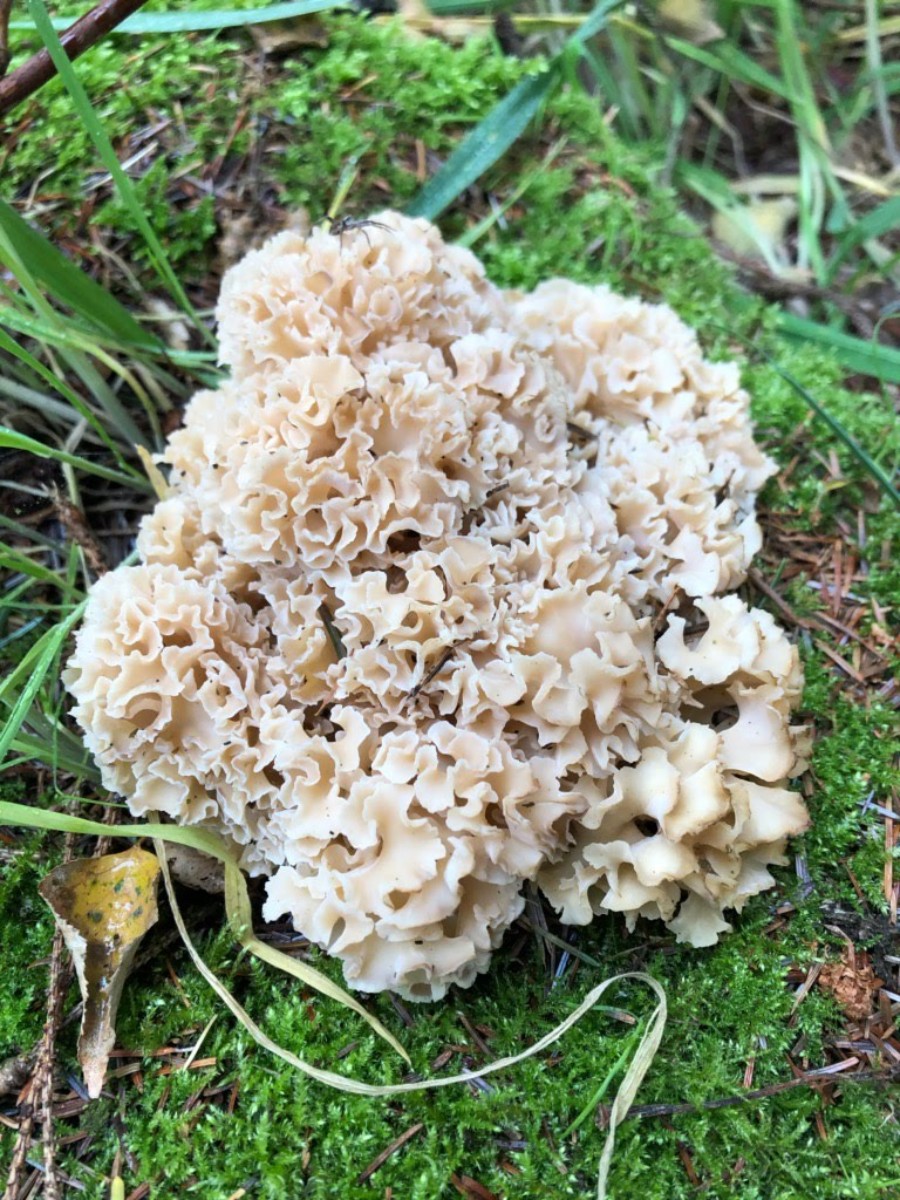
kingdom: Fungi
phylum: Basidiomycota
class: Agaricomycetes
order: Polyporales
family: Sparassidaceae
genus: Sparassis
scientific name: Sparassis crispa
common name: kruset blomkålssvamp
